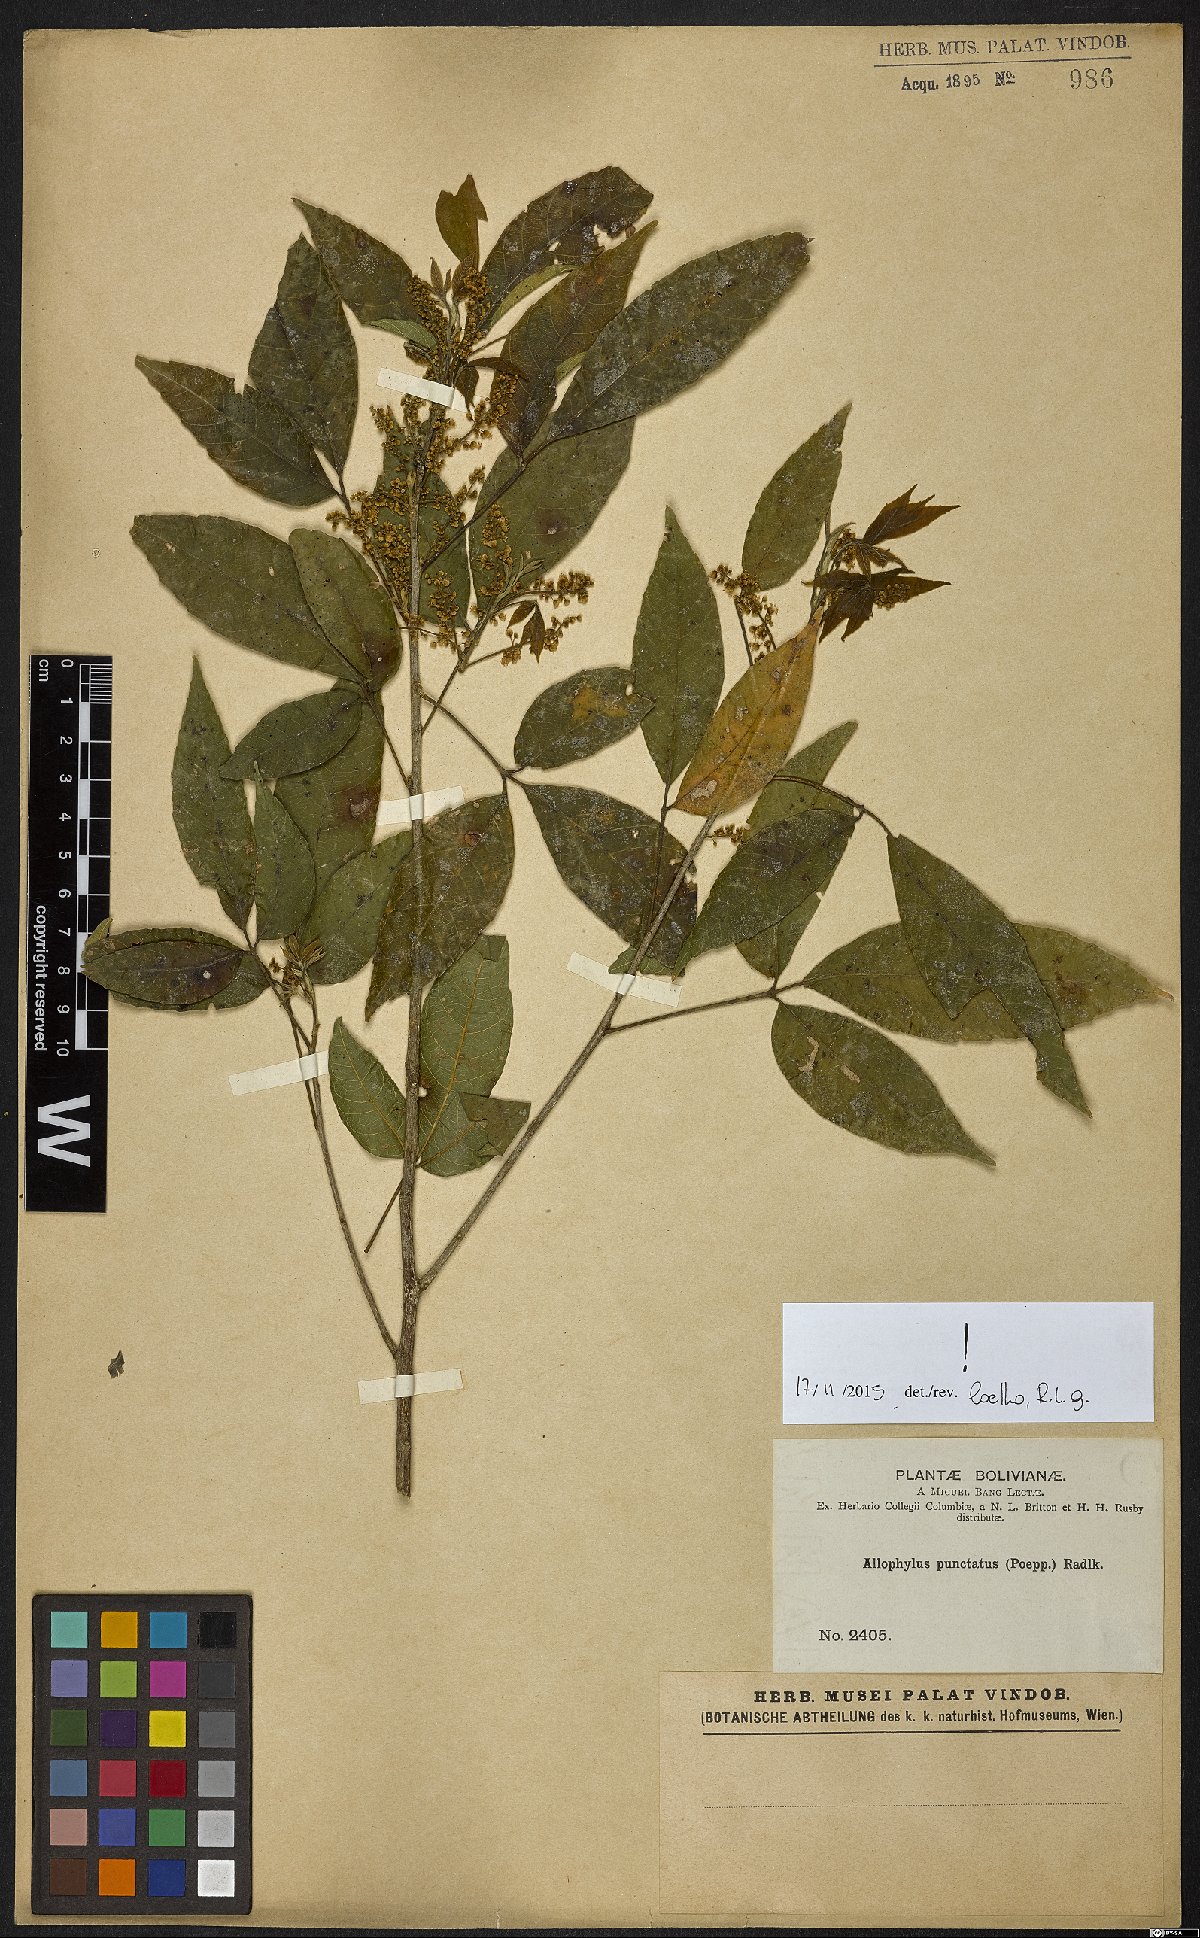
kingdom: Plantae
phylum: Tracheophyta
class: Magnoliopsida
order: Sapindales
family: Sapindaceae
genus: Allophylus
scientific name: Allophylus punctatus
